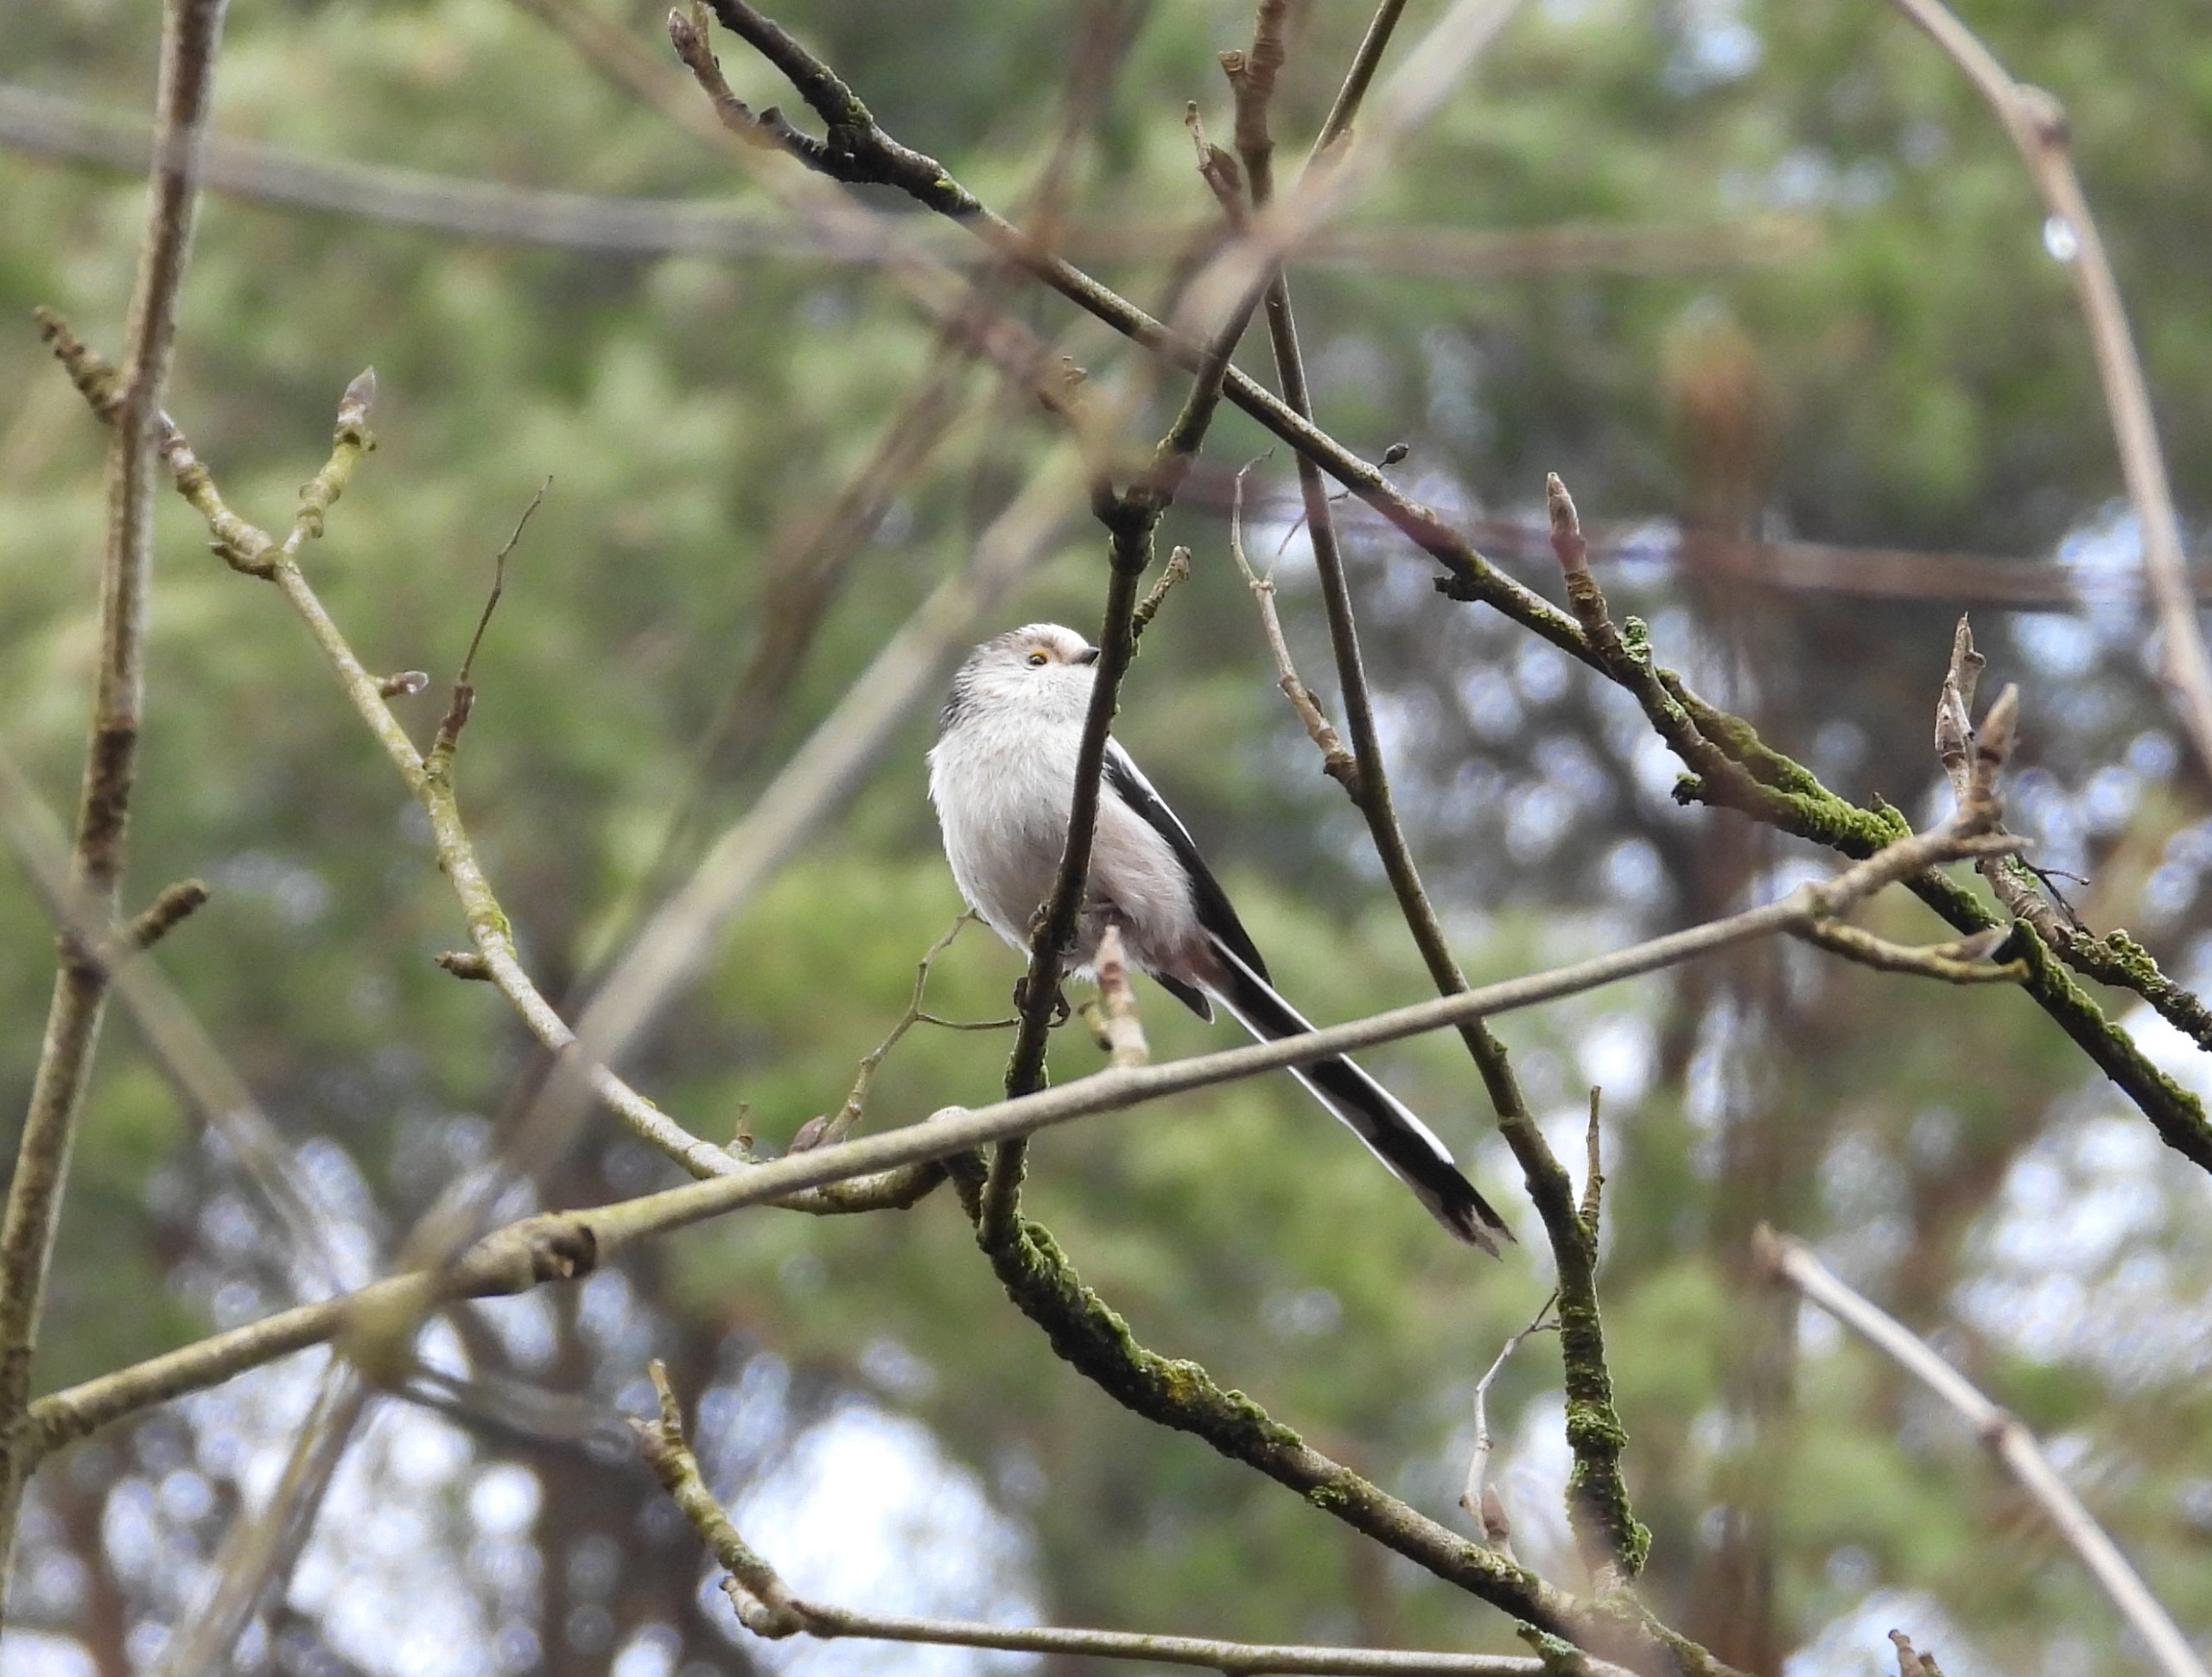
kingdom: Animalia
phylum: Chordata
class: Aves
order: Passeriformes
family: Aegithalidae
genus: Aegithalos
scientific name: Aegithalos caudatus
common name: Halemejse
